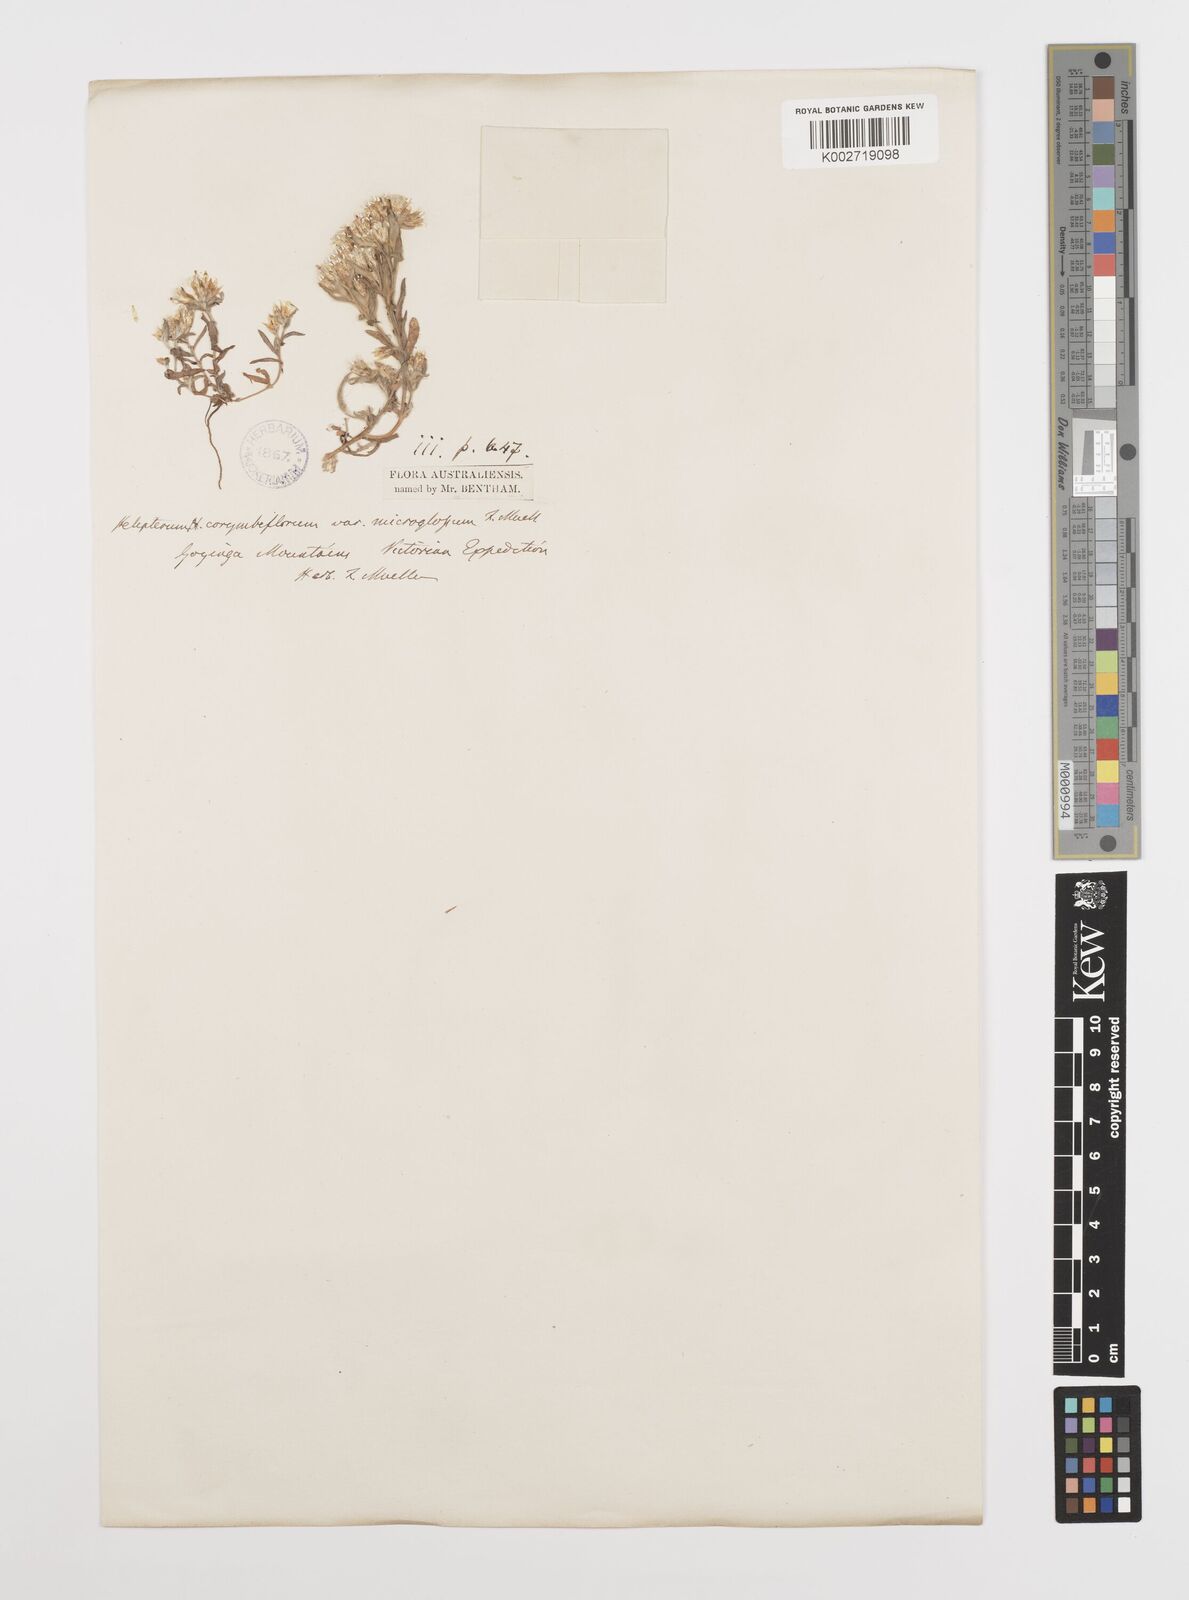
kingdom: Plantae
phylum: Tracheophyta
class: Magnoliopsida
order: Asterales
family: Asteraceae
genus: Rhodanthe
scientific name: Rhodanthe corymbiflora
